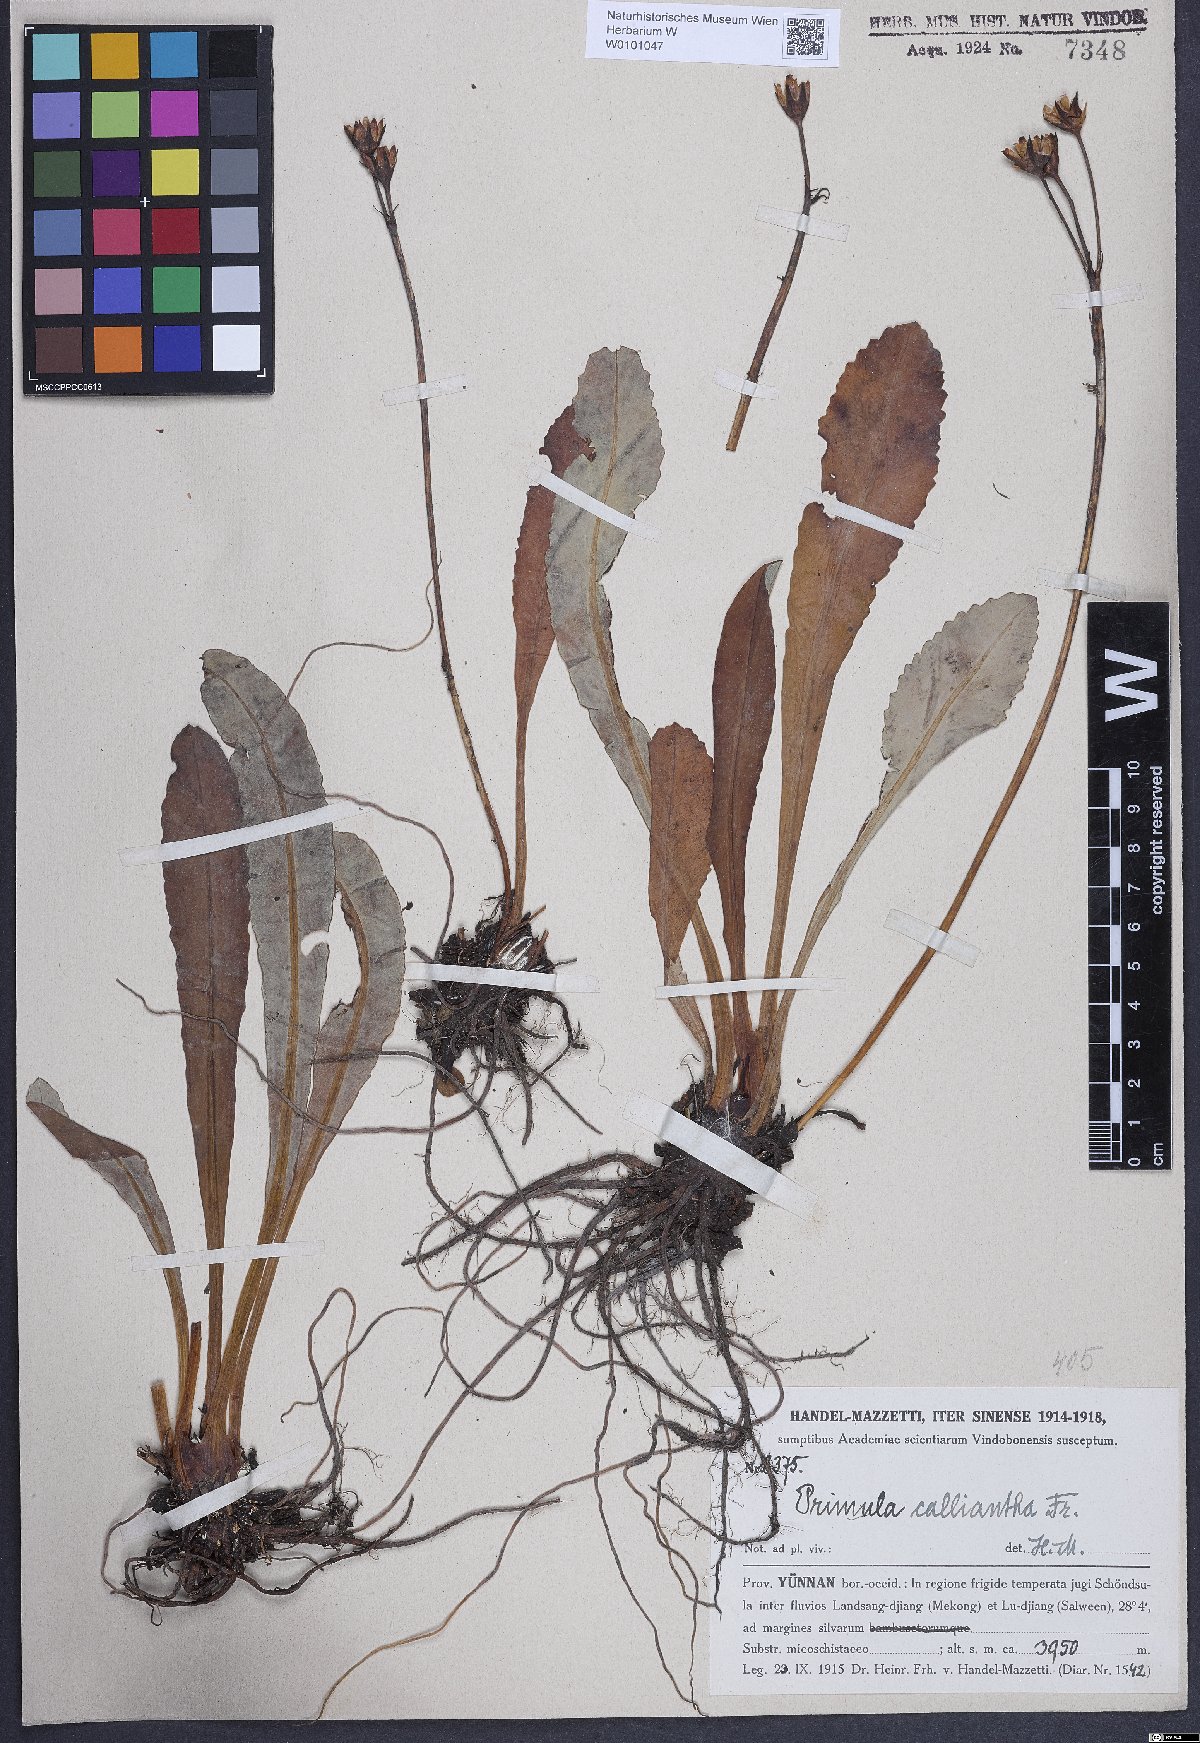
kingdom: Plantae
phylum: Tracheophyta
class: Magnoliopsida
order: Ericales
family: Primulaceae
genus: Primula
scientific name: Primula calliantha
